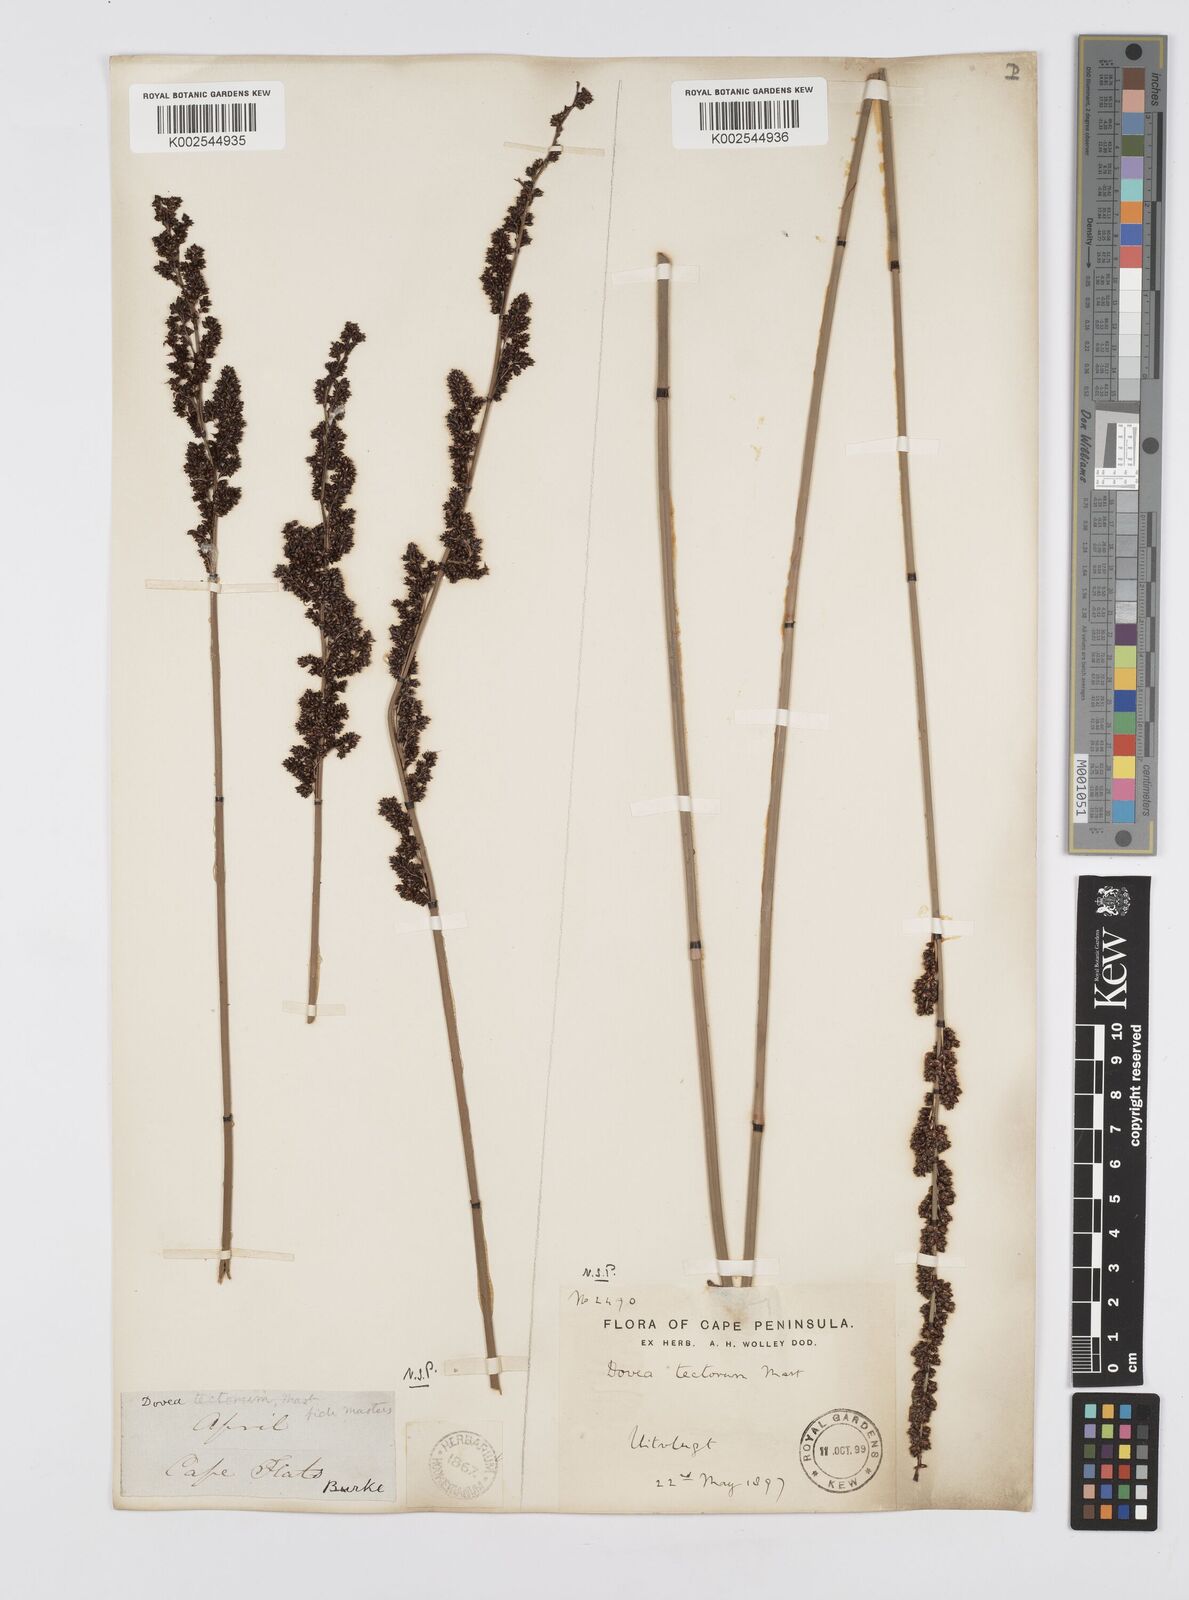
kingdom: Plantae
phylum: Tracheophyta
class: Liliopsida
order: Poales
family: Restionaceae
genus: Elegia
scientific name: Elegia tectorum
